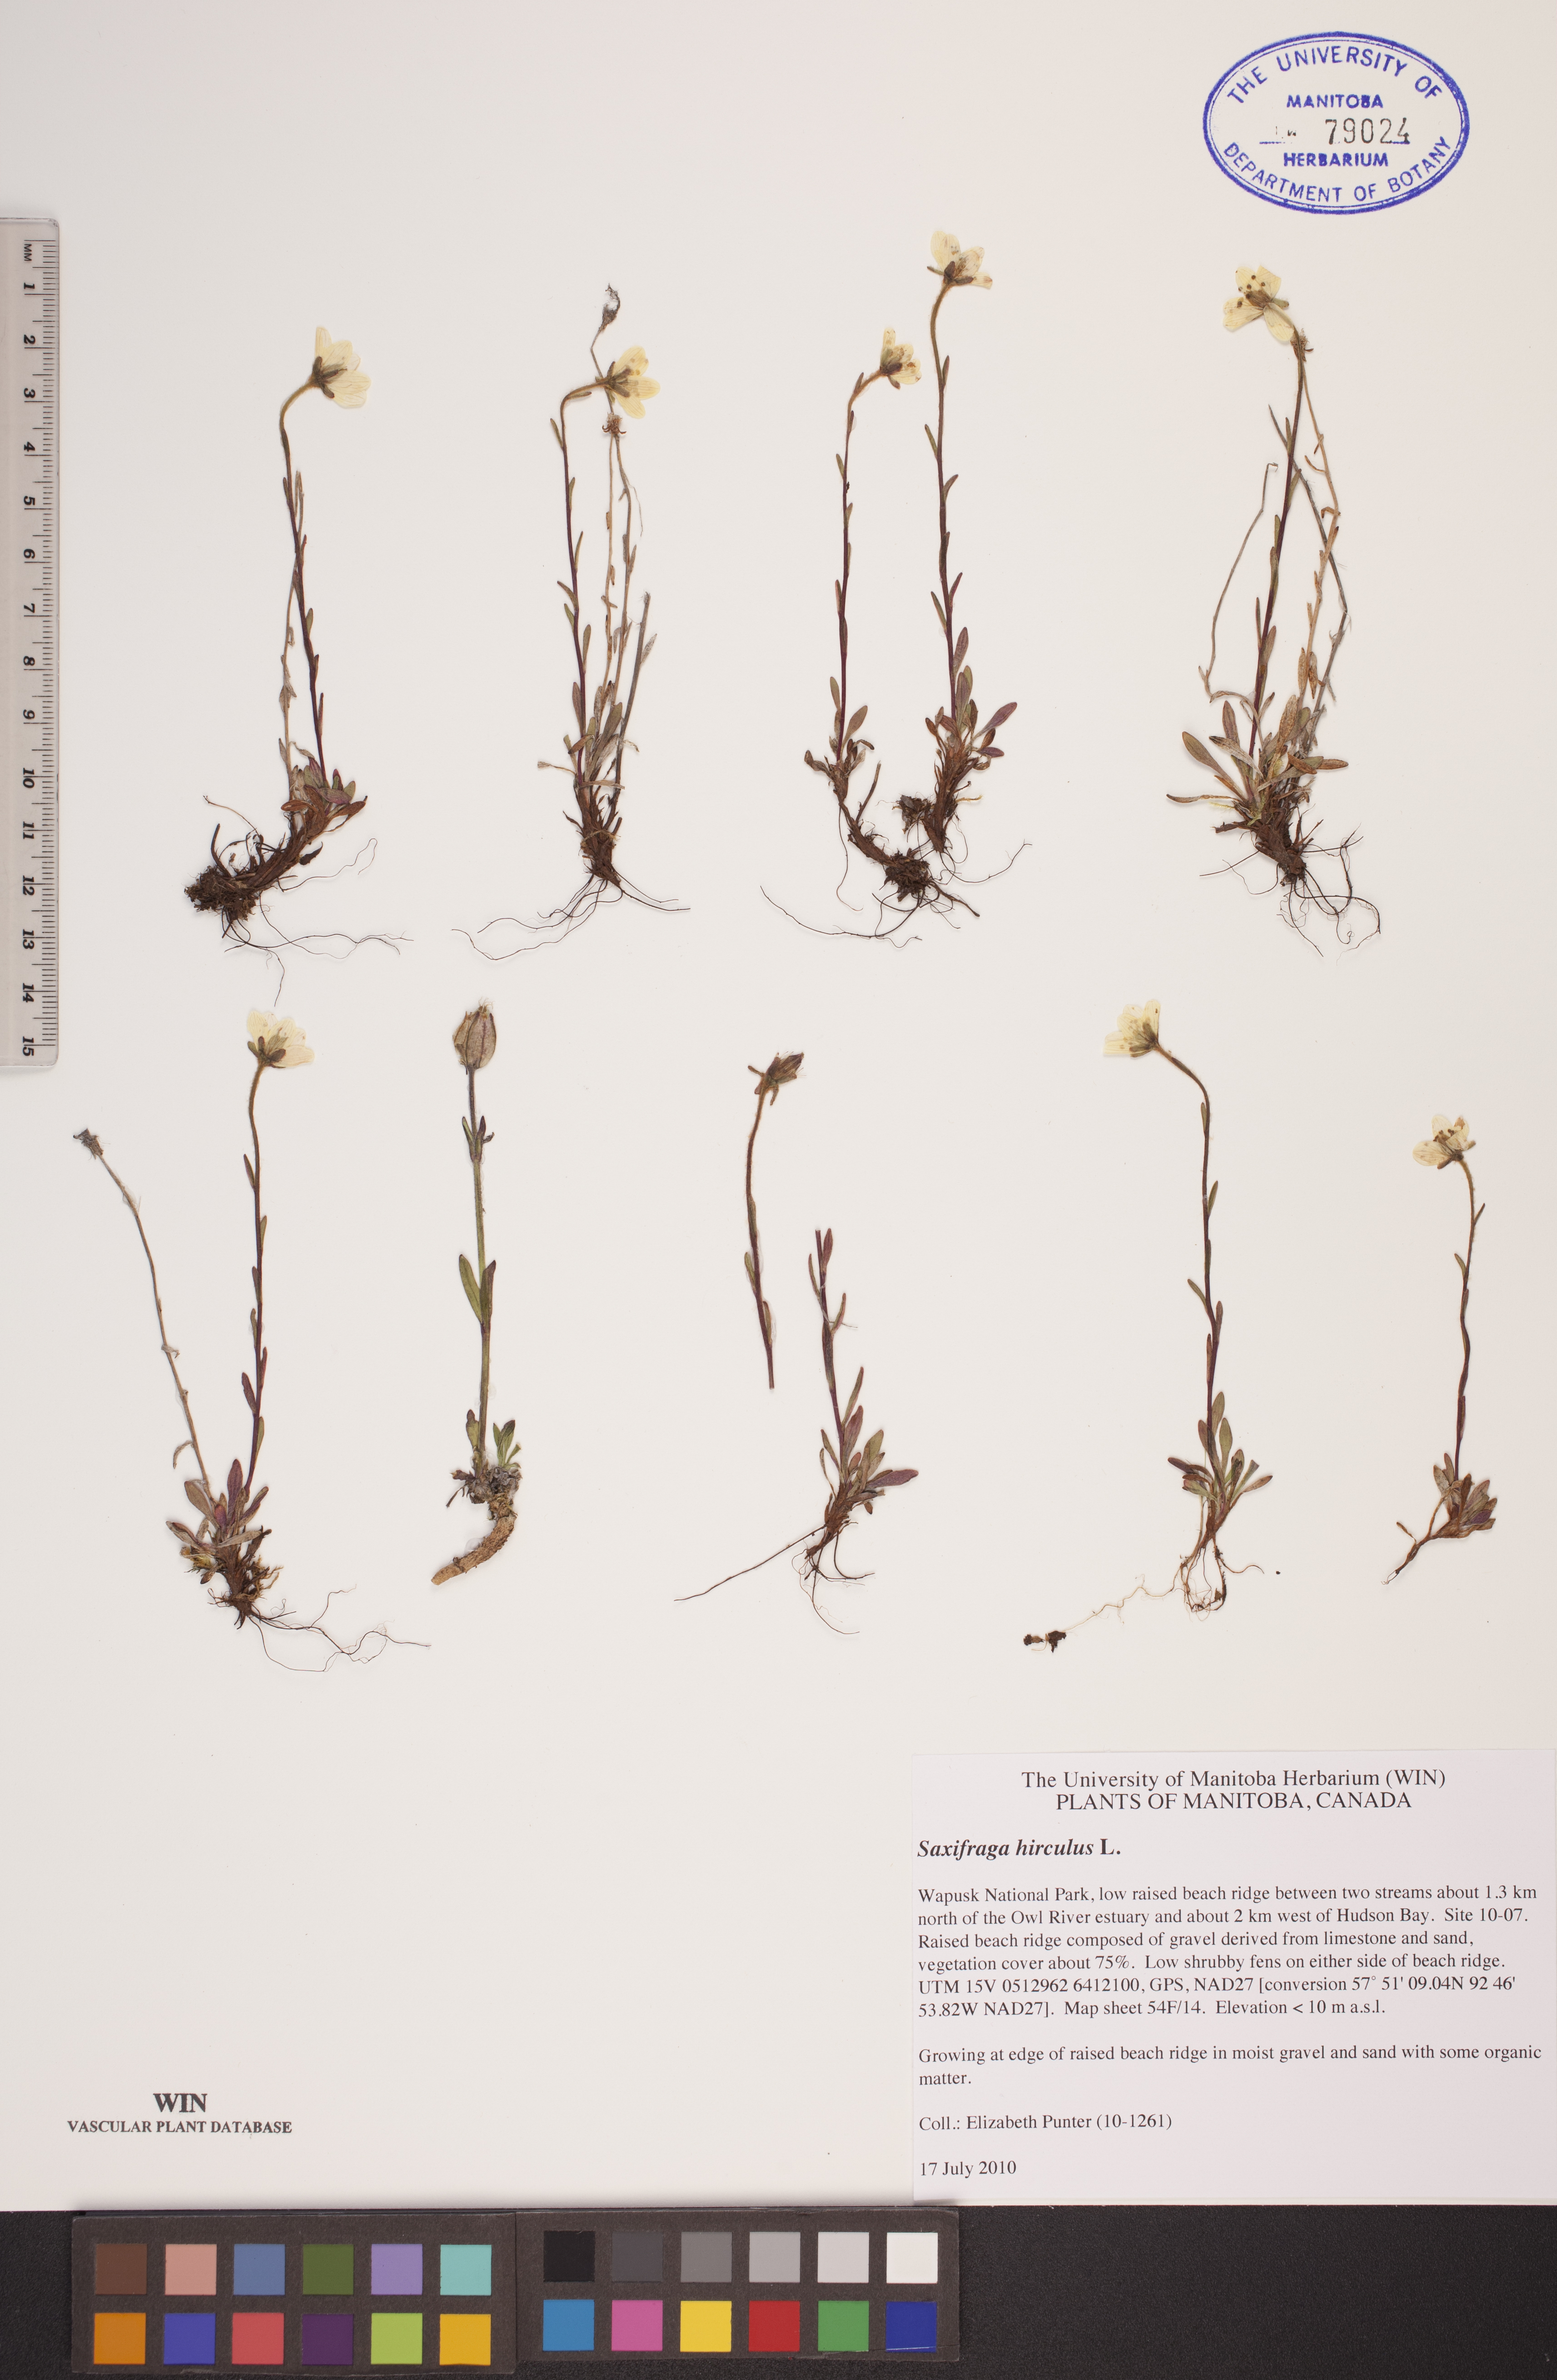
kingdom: Plantae
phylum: Tracheophyta
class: Magnoliopsida
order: Saxifragales
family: Saxifragaceae
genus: Saxifraga
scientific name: Saxifraga hirculus
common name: Yellow marsh saxifrage
